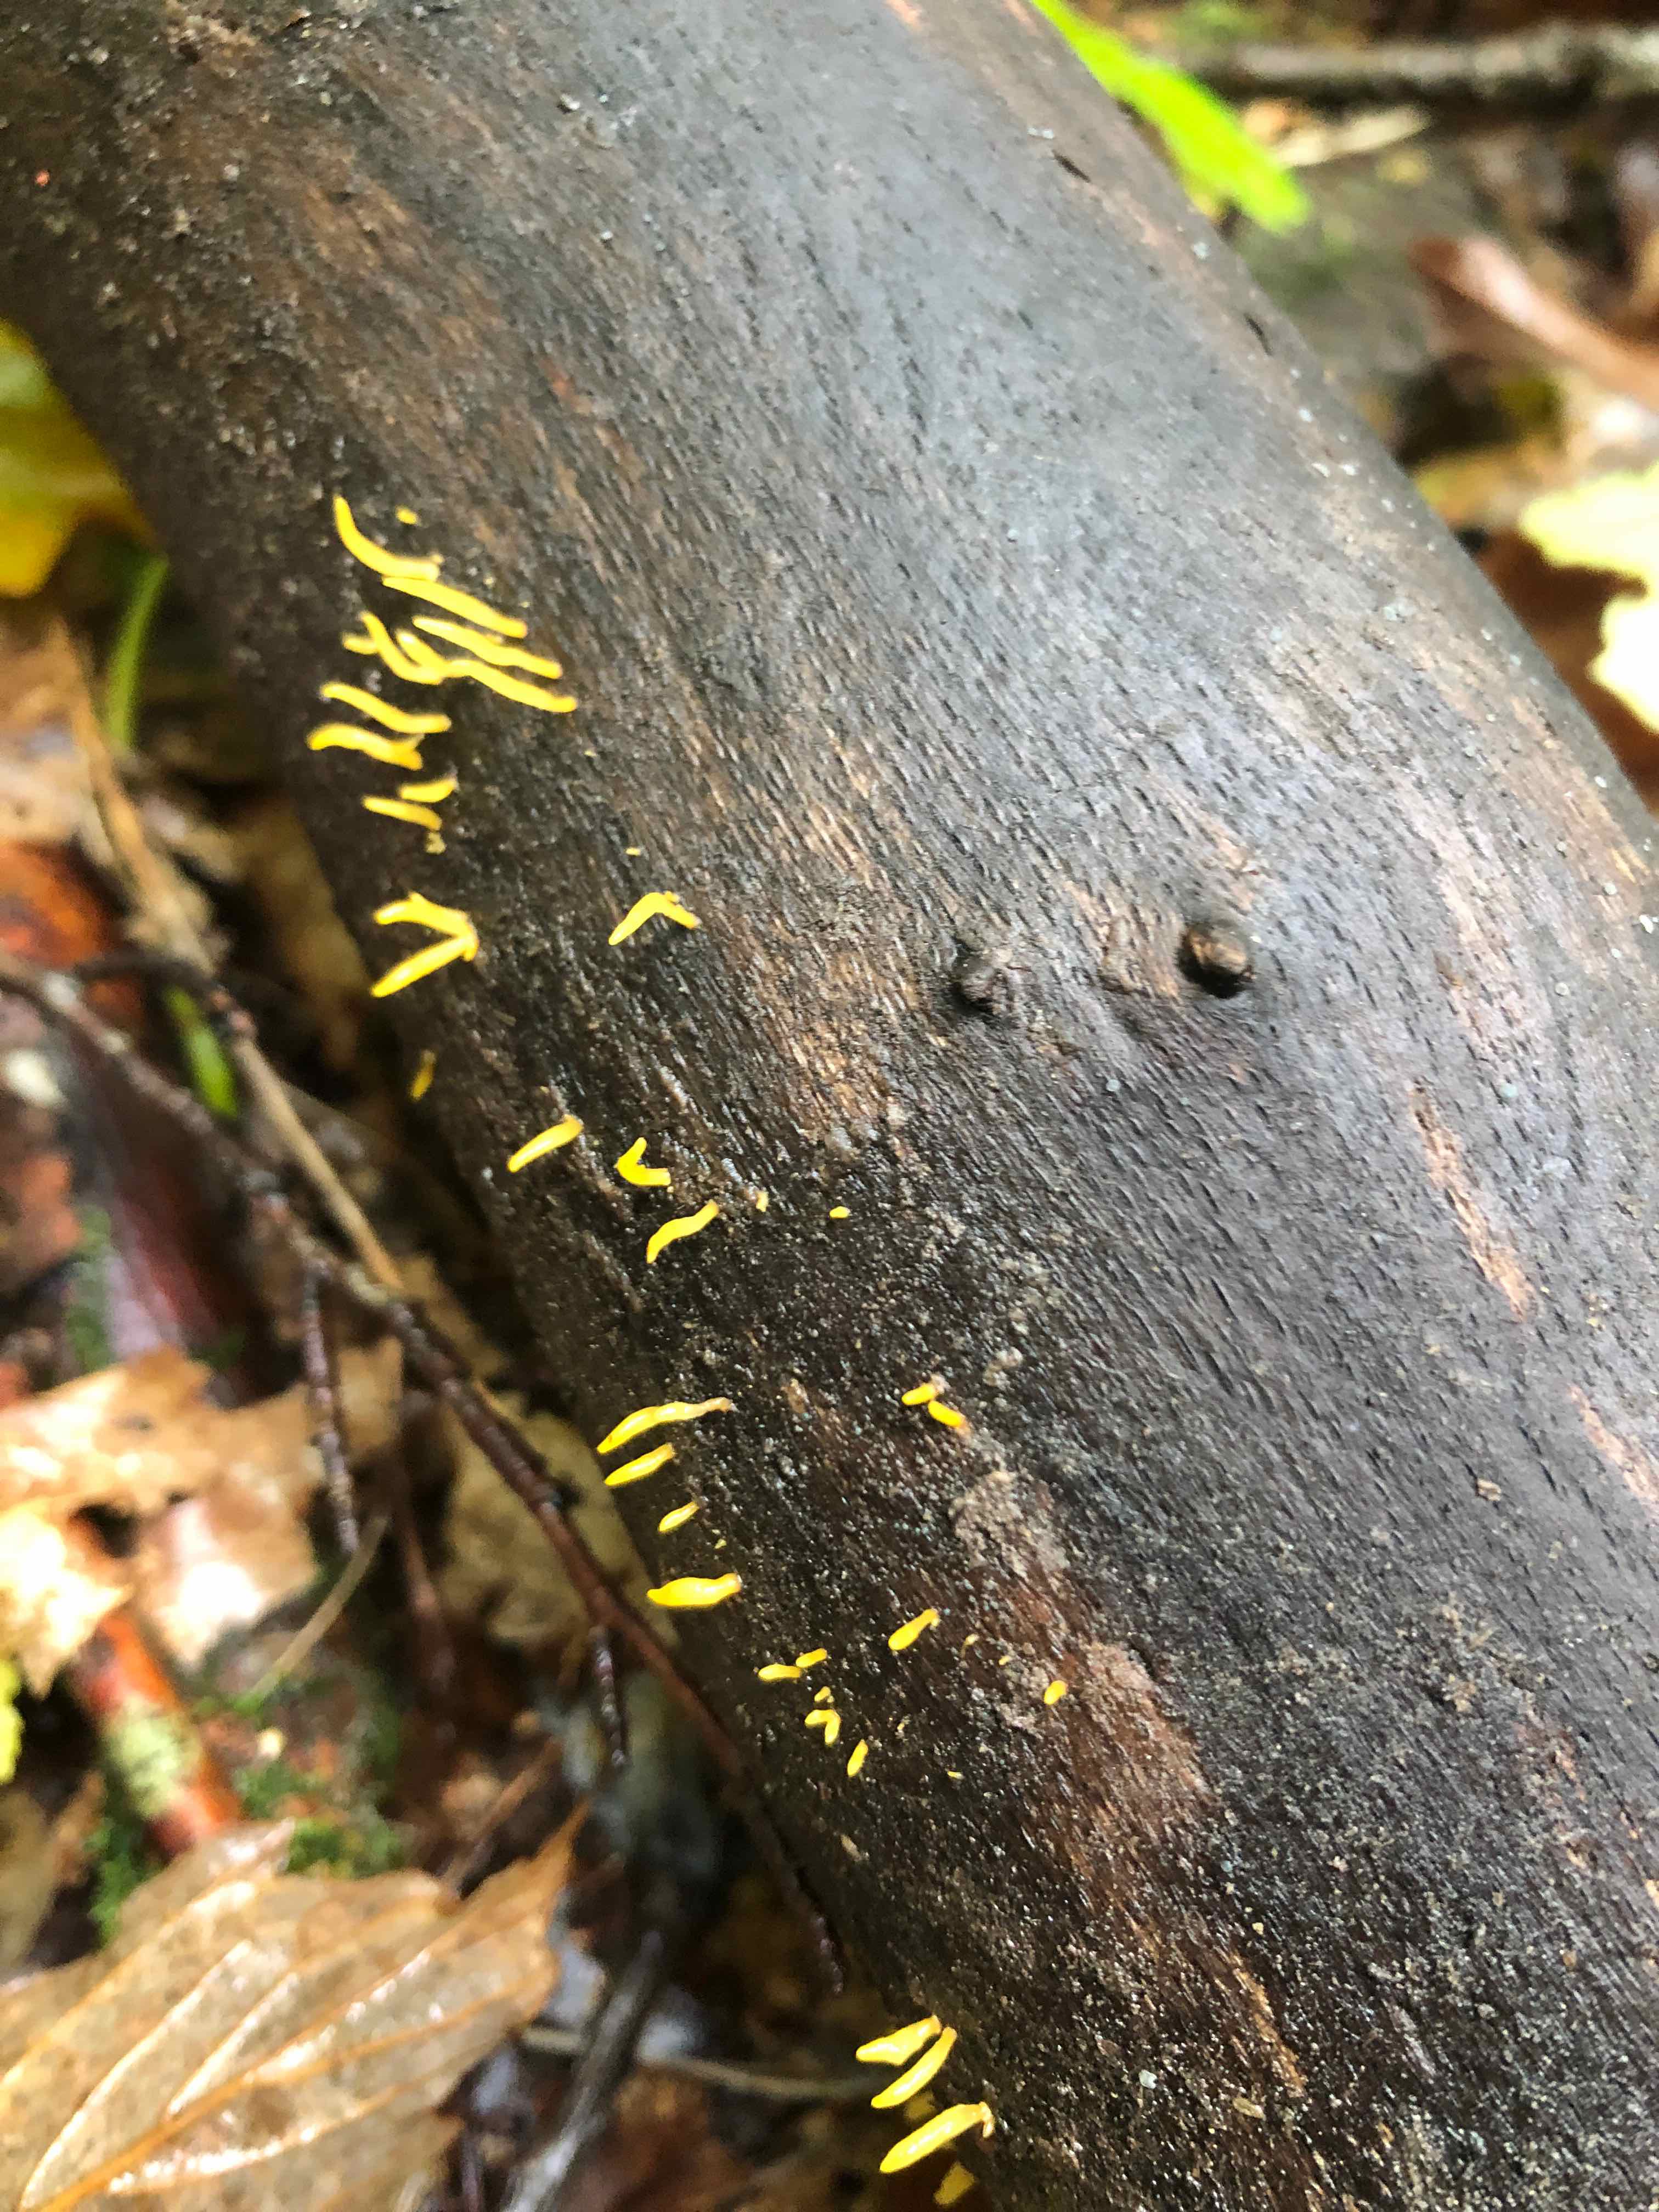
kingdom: Fungi
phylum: Basidiomycota
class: Dacrymycetes
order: Dacrymycetales
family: Dacrymycetaceae
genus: Calocera
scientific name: Calocera cornea
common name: liden guldgaffel
